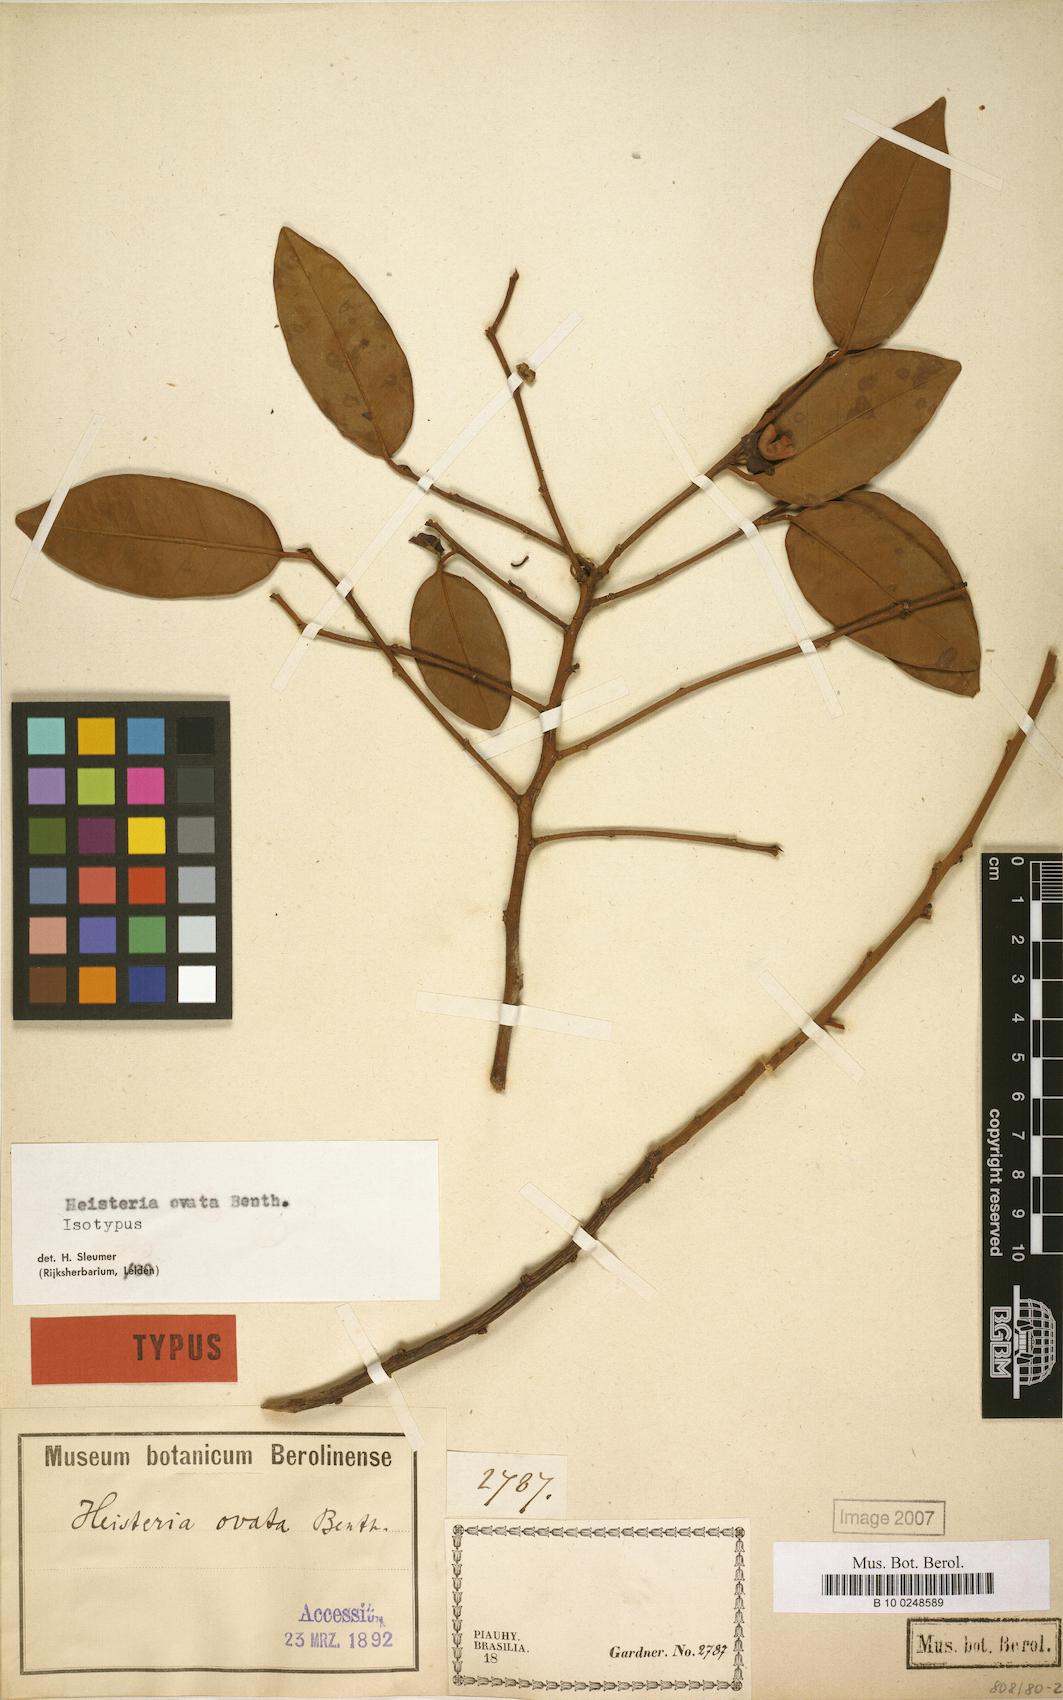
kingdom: Plantae
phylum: Tracheophyta
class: Magnoliopsida
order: Santalales
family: Erythropalaceae
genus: Heisteria
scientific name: Heisteria ovata
